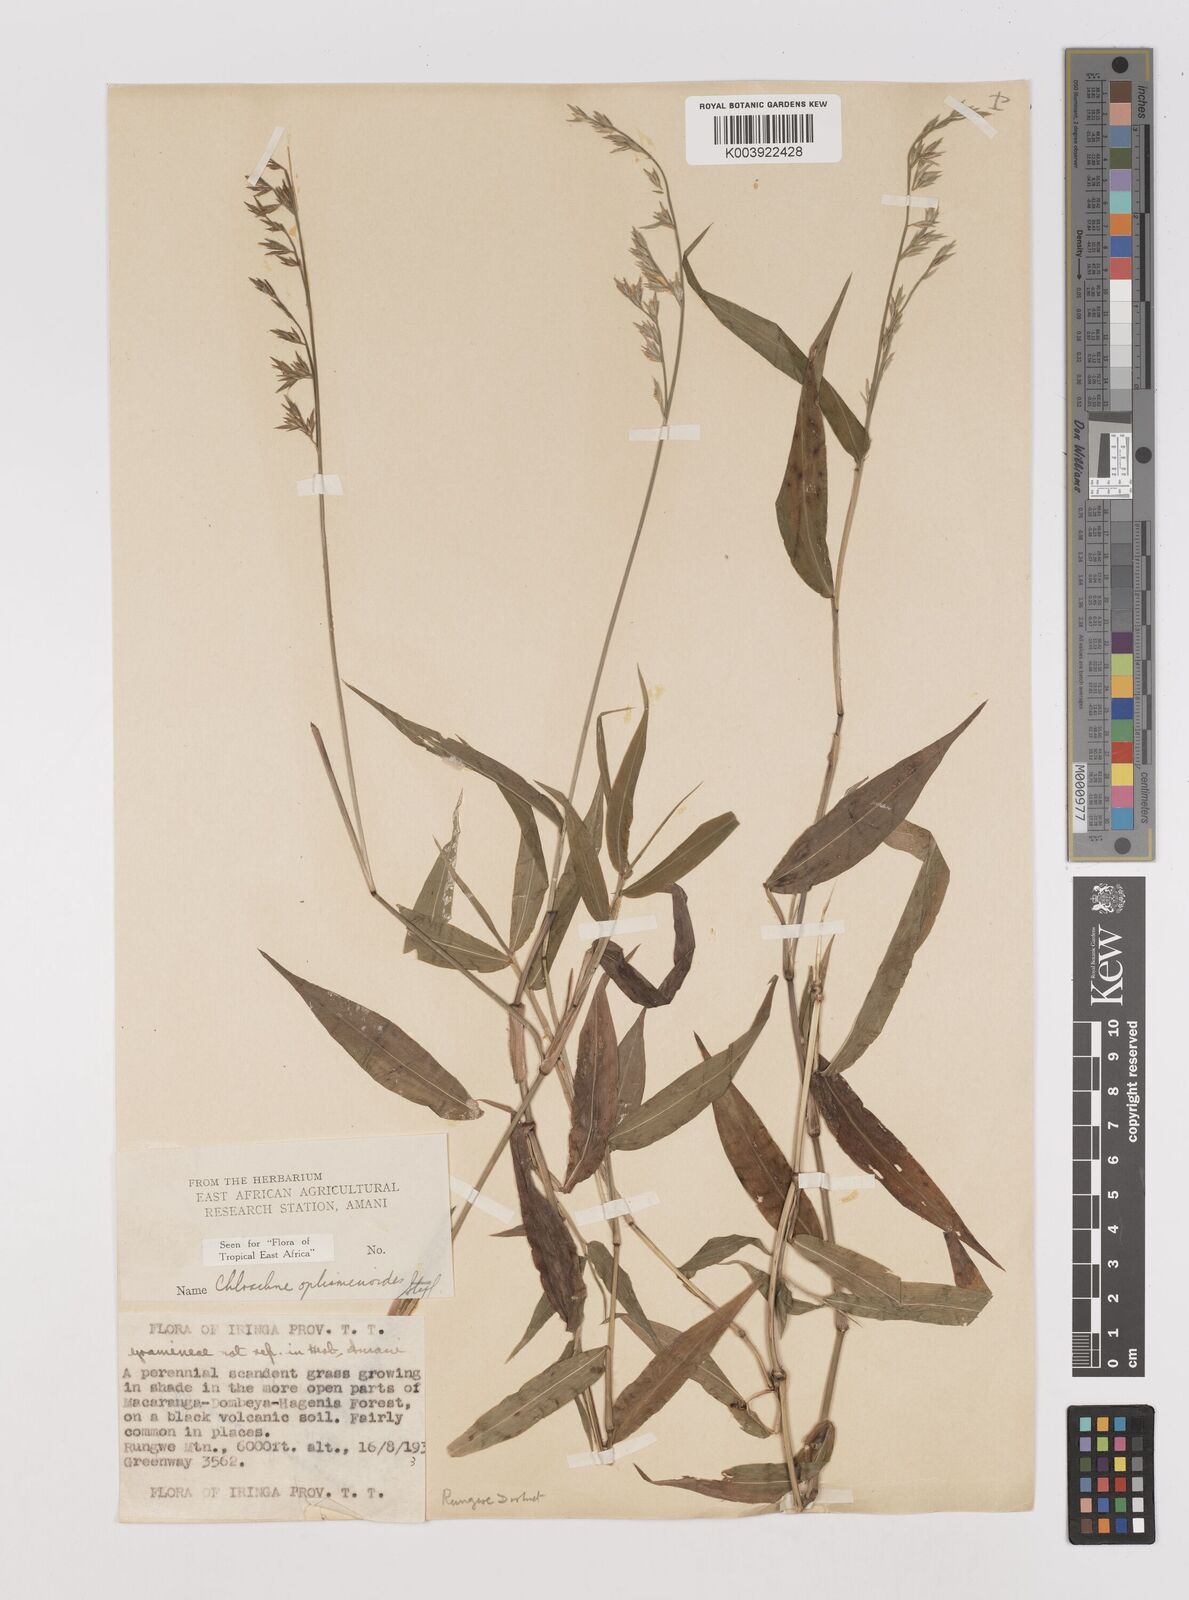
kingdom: Plantae
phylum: Tracheophyta
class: Liliopsida
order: Poales
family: Poaceae
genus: Poecilostachys
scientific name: Poecilostachys oplismenoides
